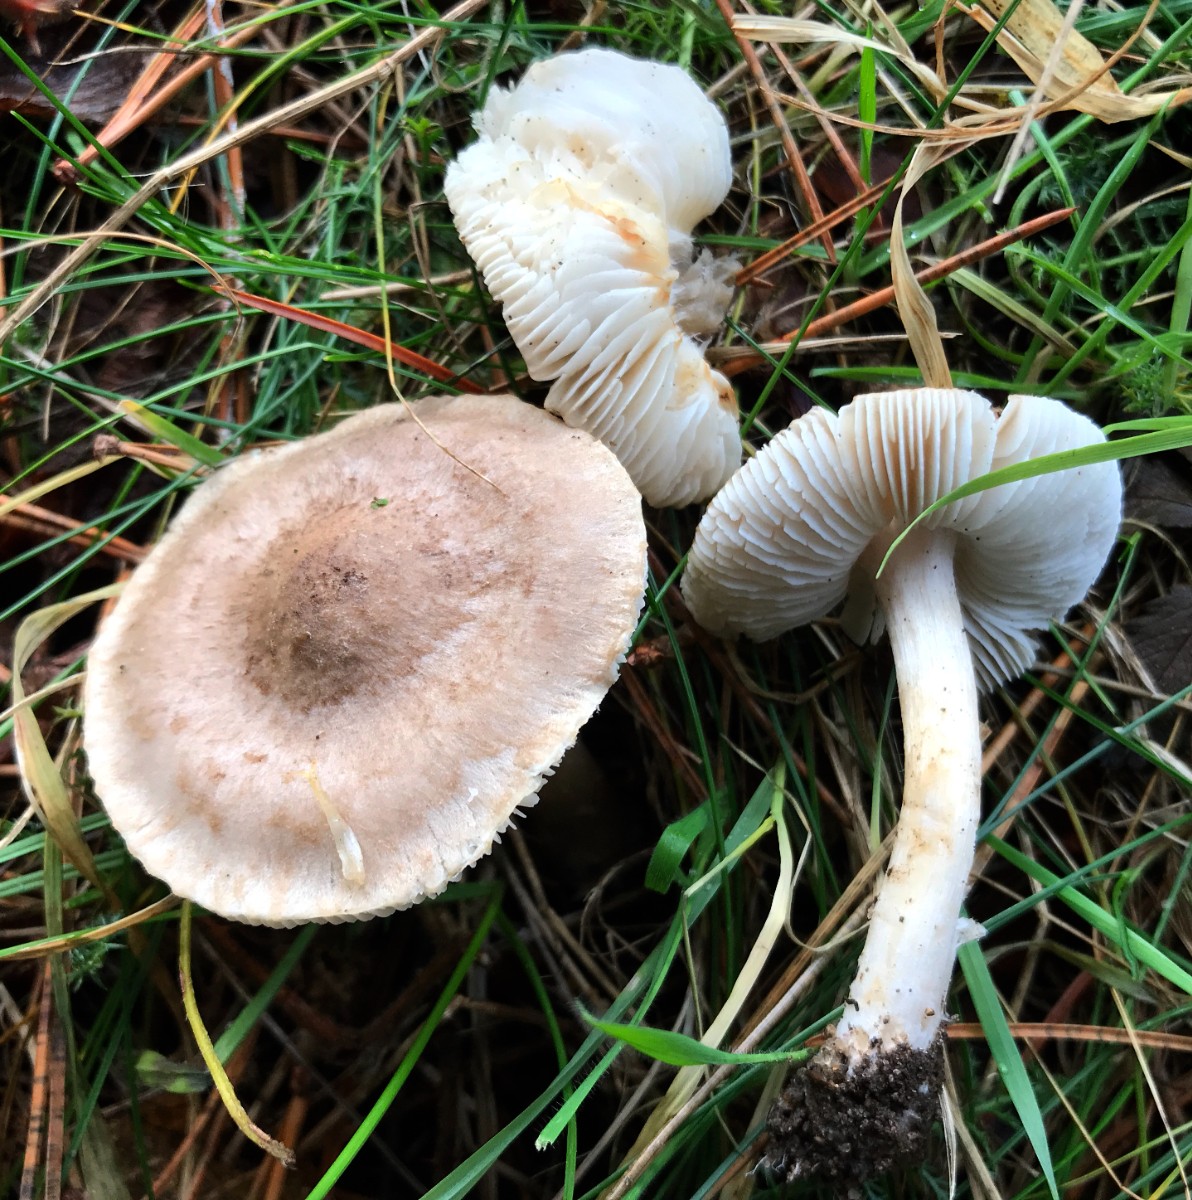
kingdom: Fungi
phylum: Basidiomycota
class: Agaricomycetes
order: Agaricales
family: Tricholomataceae
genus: Tricholoma
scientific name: Tricholoma scalpturatum
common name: gulplettet ridderhat
